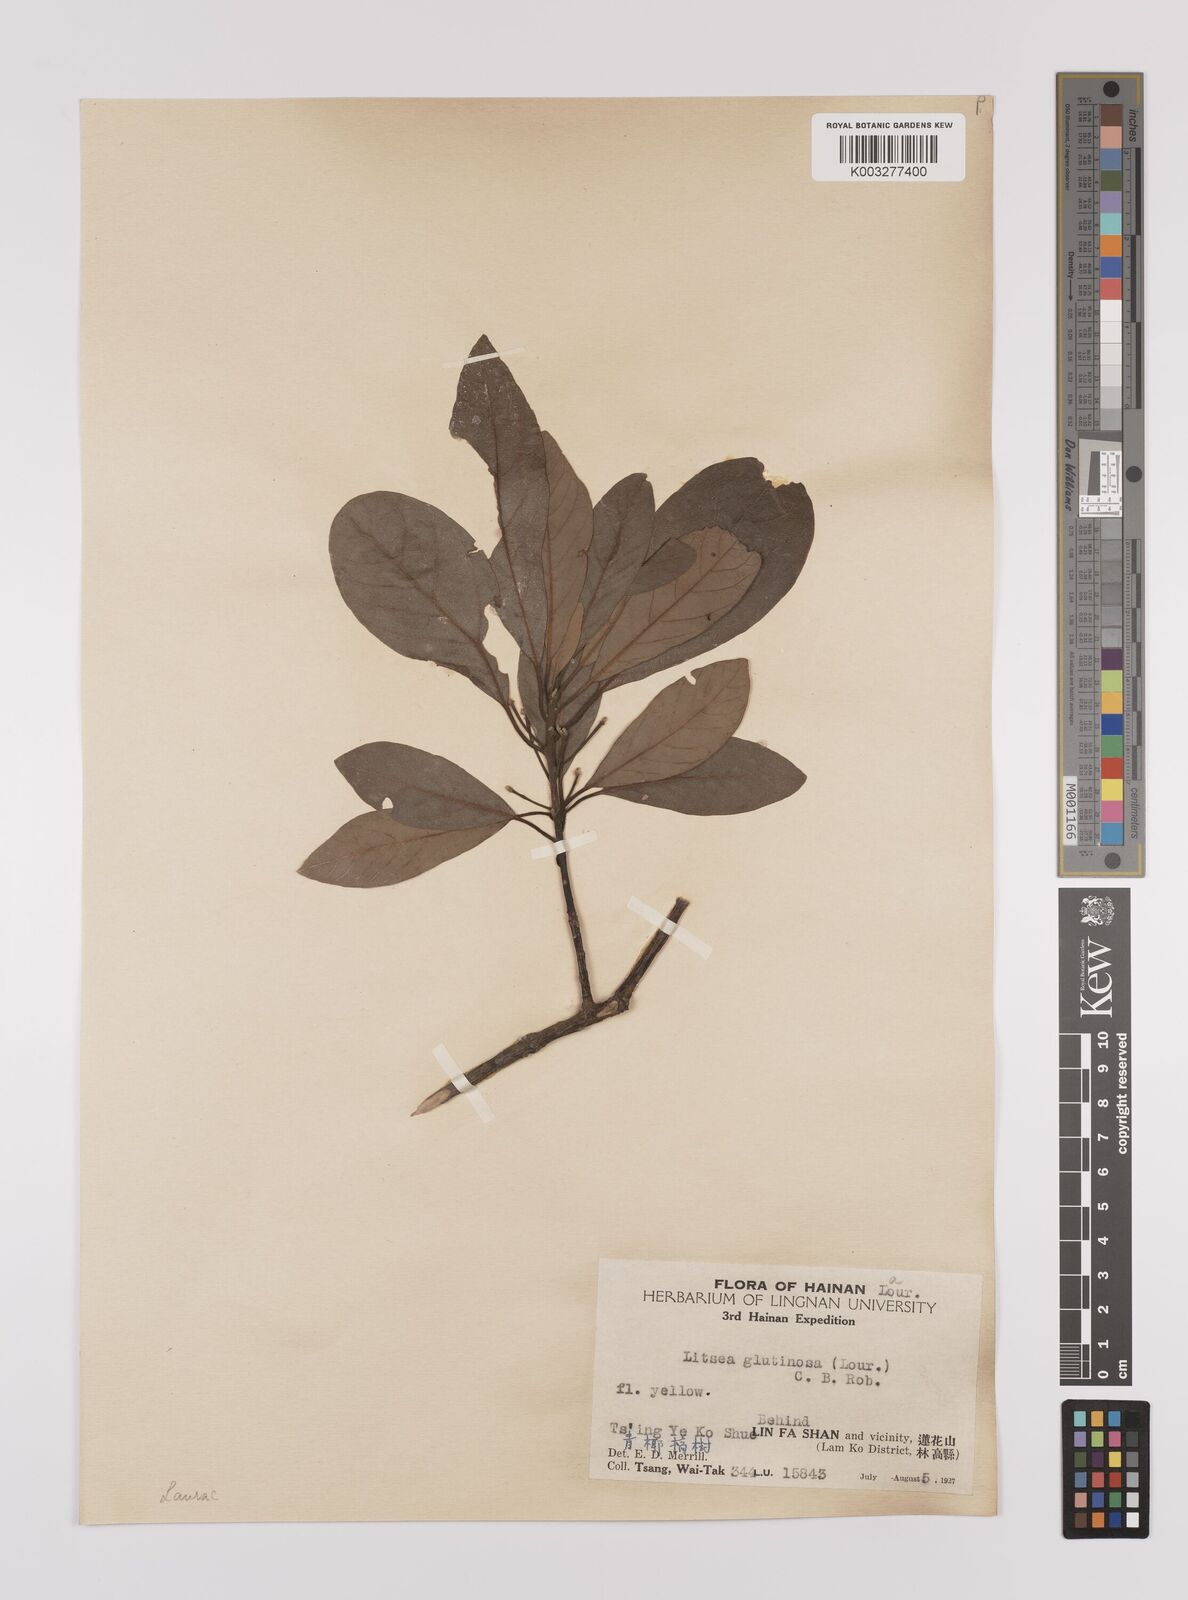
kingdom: Plantae
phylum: Tracheophyta
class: Magnoliopsida
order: Laurales
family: Lauraceae
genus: Litsea
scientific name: Litsea glutinosa
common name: Indian-laurel
